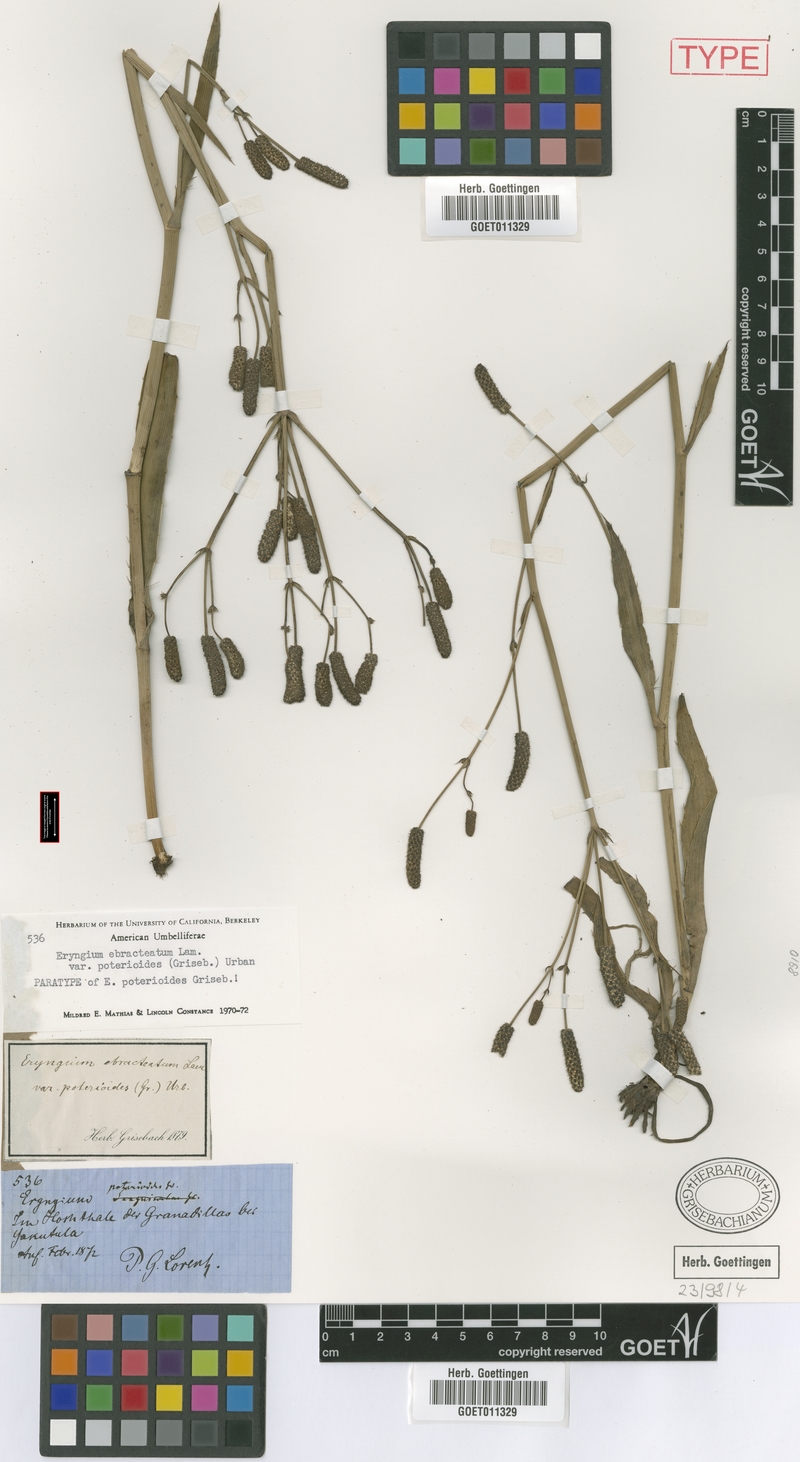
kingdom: Plantae
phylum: Tracheophyta
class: Magnoliopsida
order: Apiales
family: Apiaceae
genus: Eryngium
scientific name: Eryngium ebracteatum
